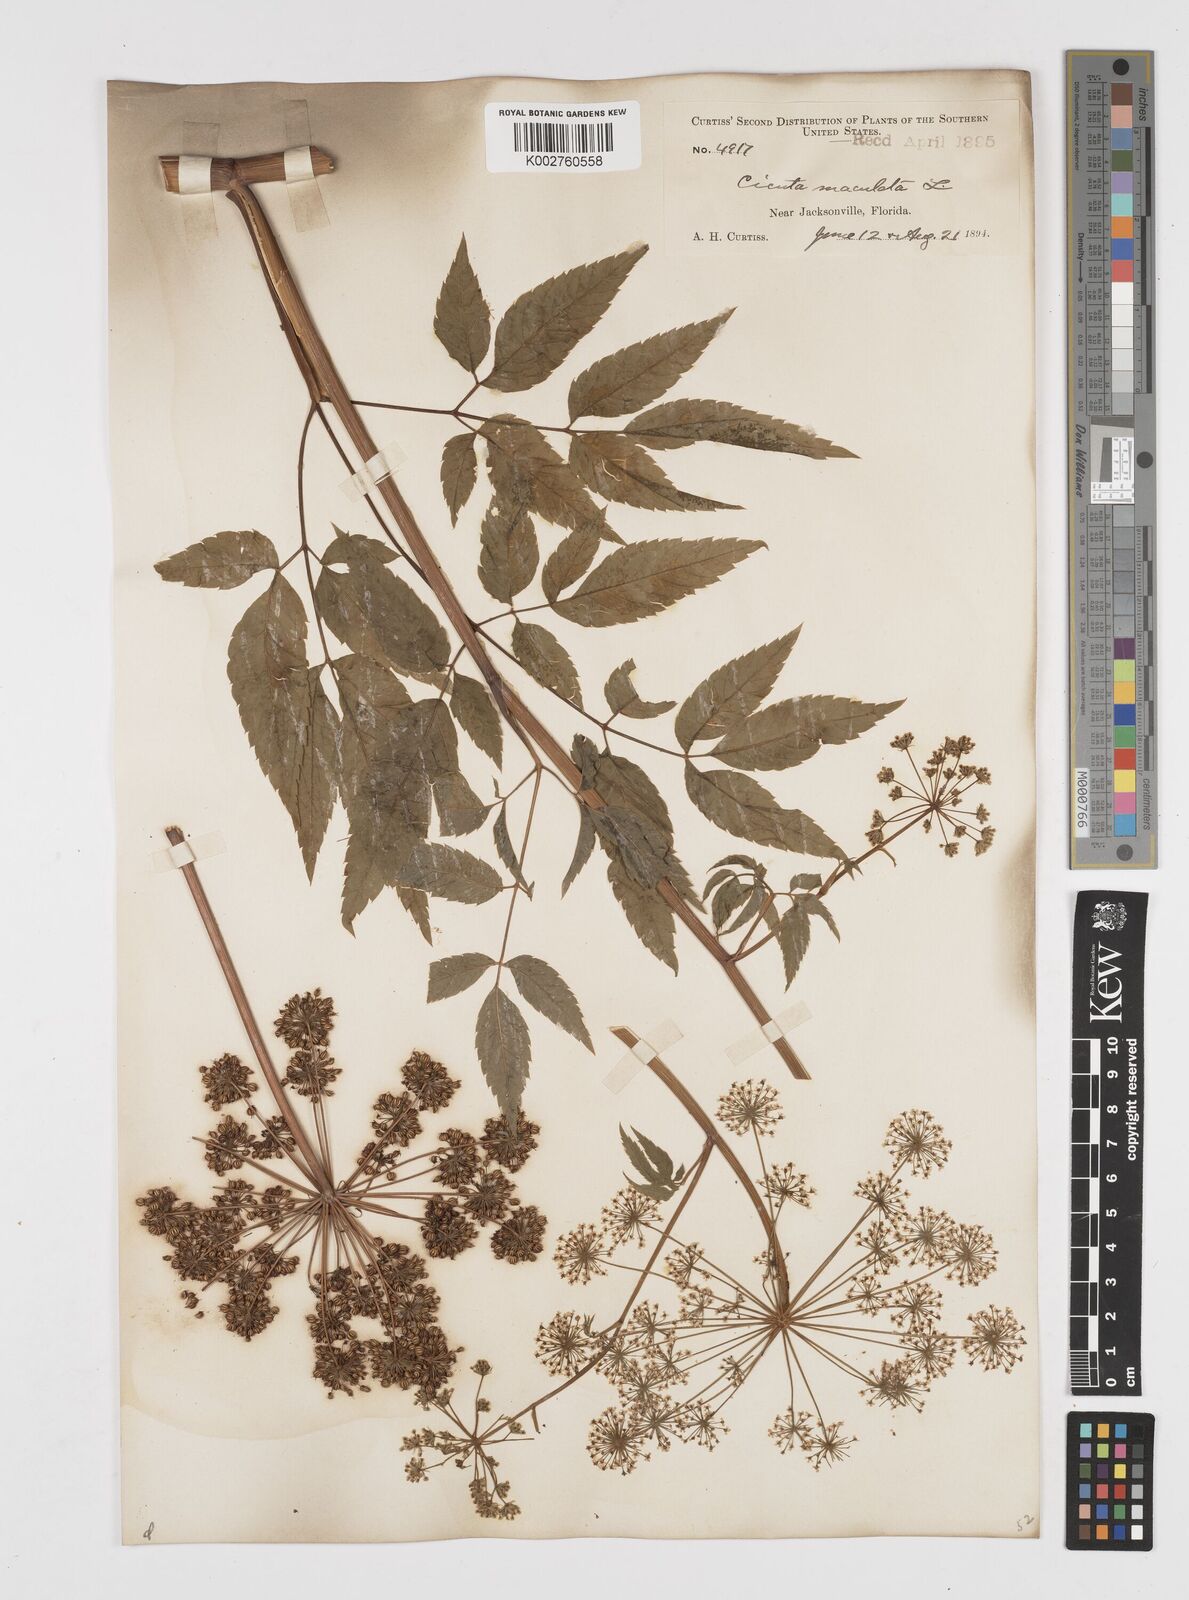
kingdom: Plantae
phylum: Tracheophyta
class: Magnoliopsida
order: Apiales
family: Apiaceae
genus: Cicuta
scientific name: Cicuta douglasii
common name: Western water-hemlock
